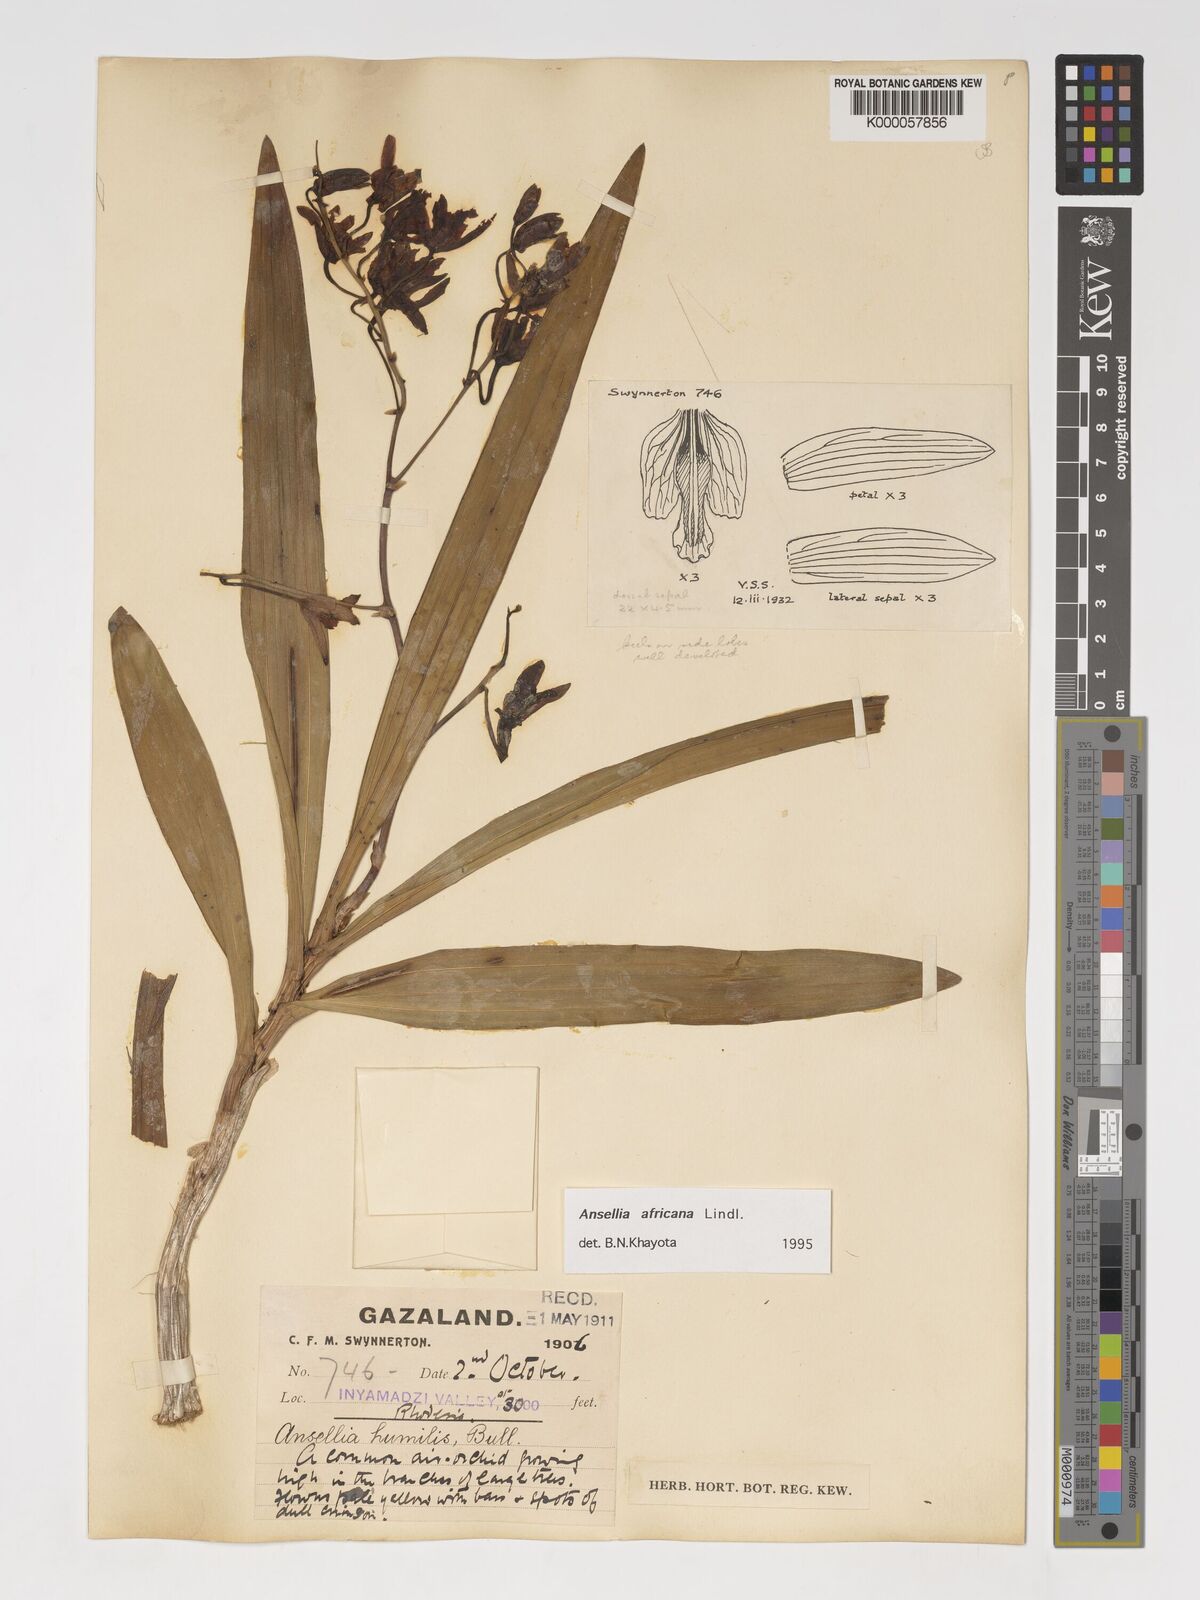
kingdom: Plantae
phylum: Tracheophyta
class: Liliopsida
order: Asparagales
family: Orchidaceae
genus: Ansellia
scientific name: Ansellia africana
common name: African ansellia
